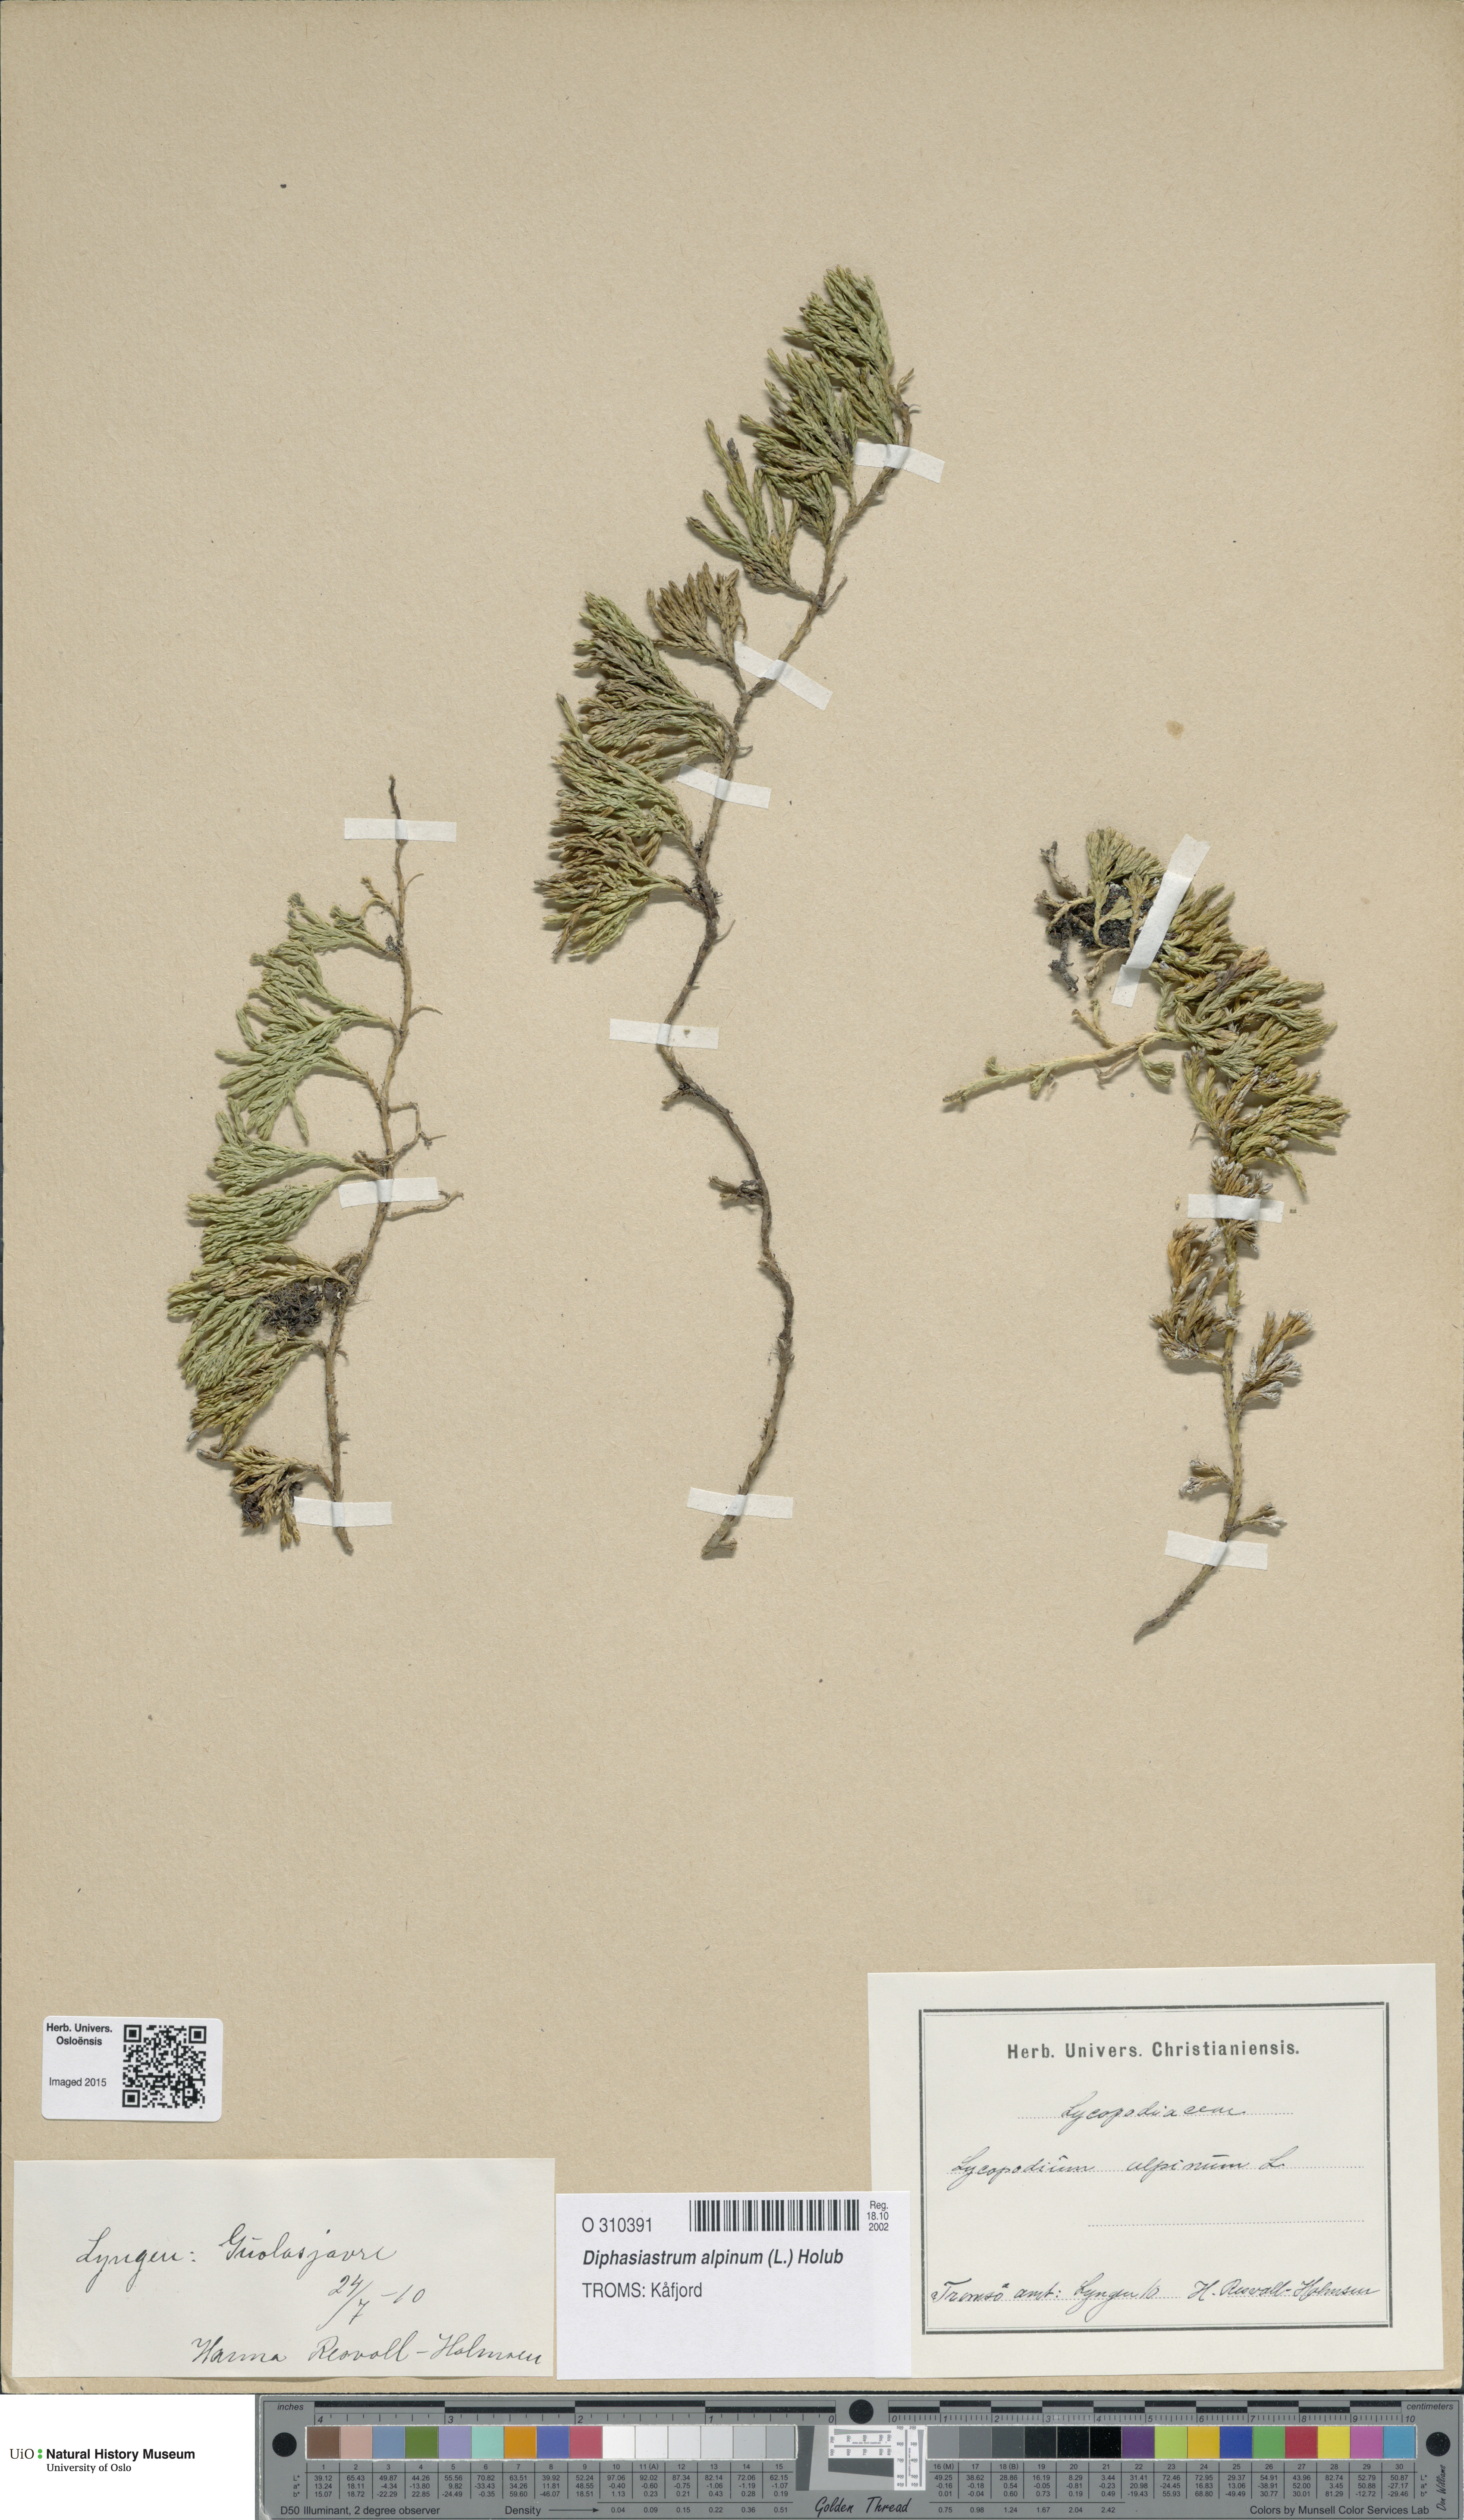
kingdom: Plantae
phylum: Tracheophyta
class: Lycopodiopsida
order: Lycopodiales
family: Lycopodiaceae
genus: Diphasiastrum
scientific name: Diphasiastrum alpinum
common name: Alpine clubmoss
